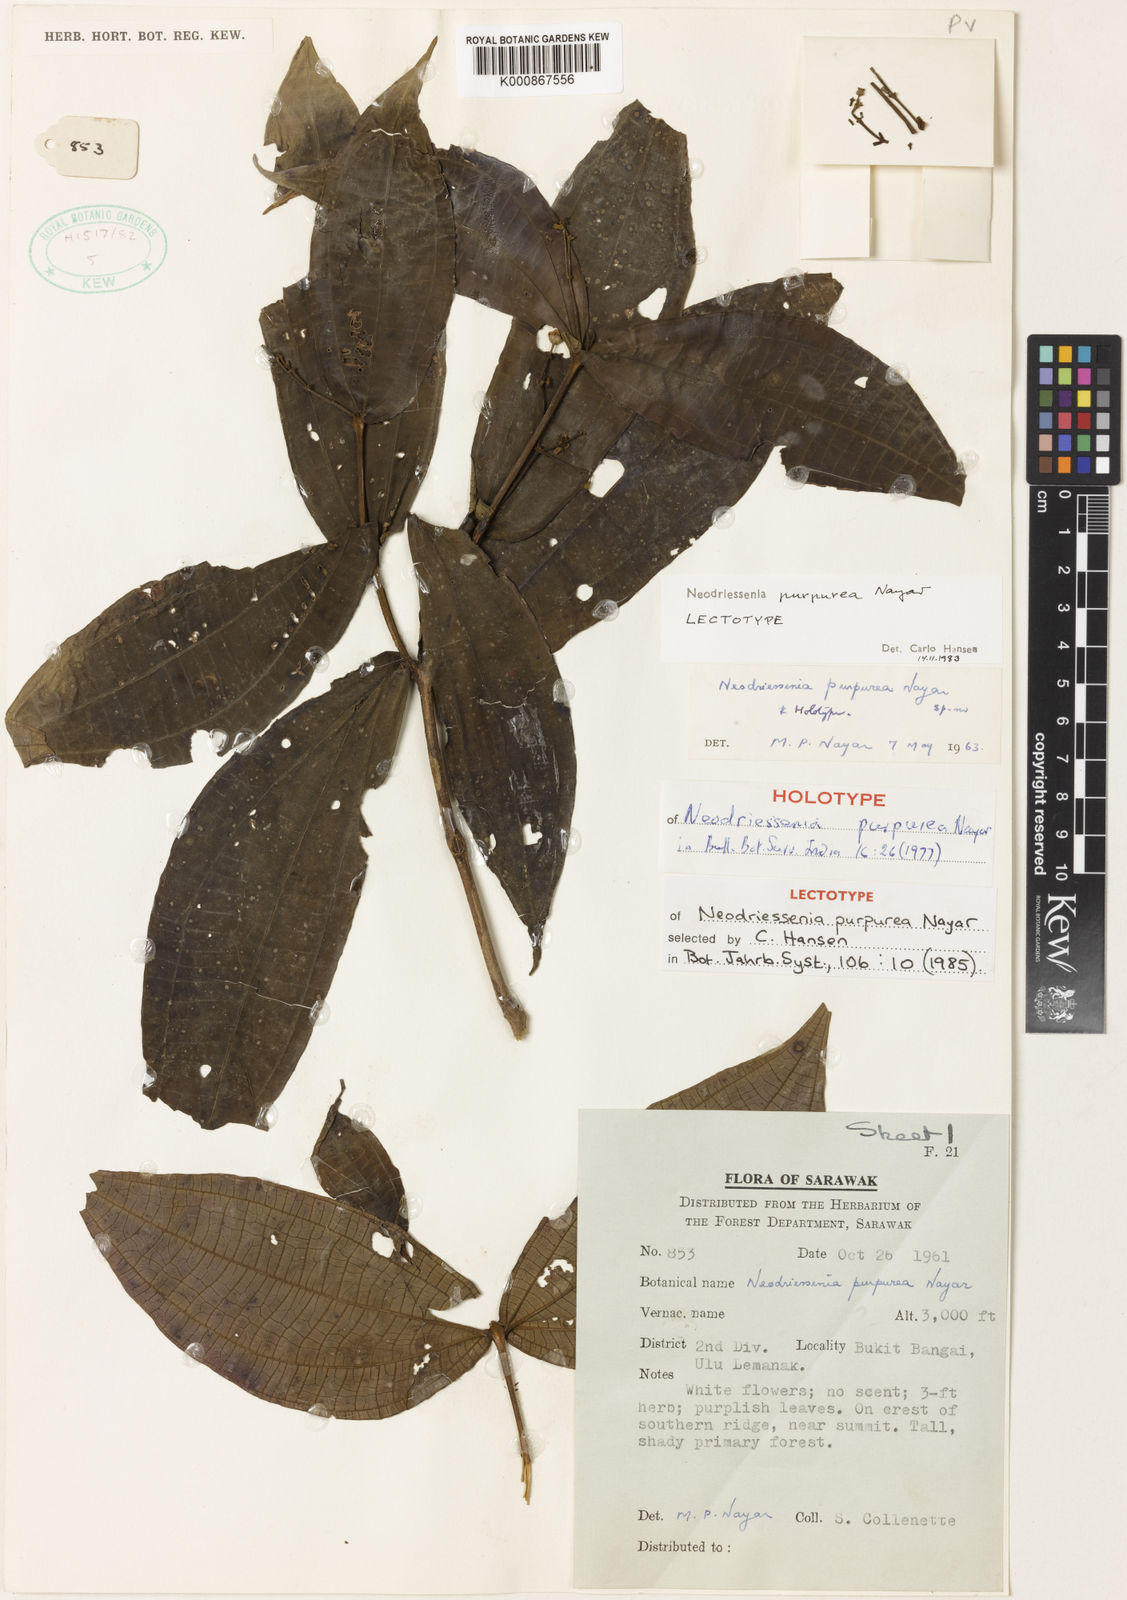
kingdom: Plantae
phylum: Tracheophyta
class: Magnoliopsida
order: Myrtales
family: Melastomataceae
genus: Neodriessenia
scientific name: Neodriessenia purpurea
